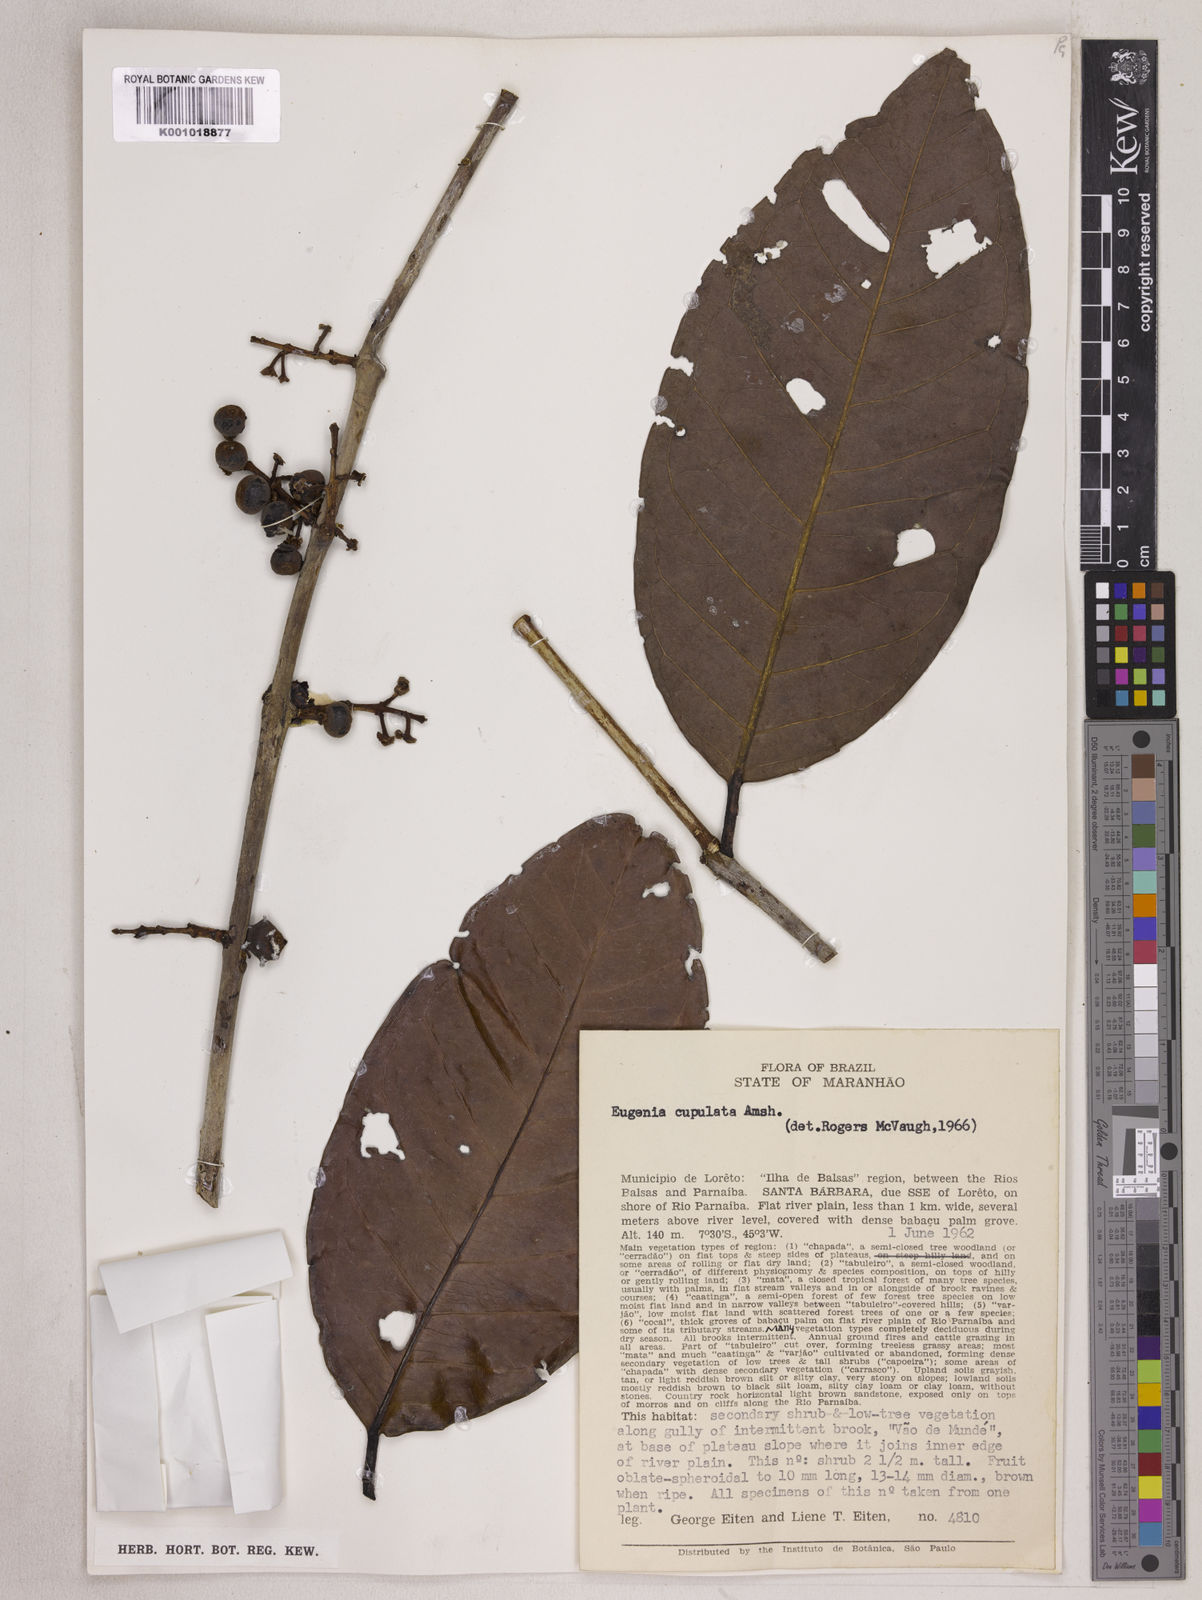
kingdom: Plantae
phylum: Tracheophyta
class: Magnoliopsida
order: Myrtales
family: Myrtaceae
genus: Eugenia
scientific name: Eugenia cupulata
